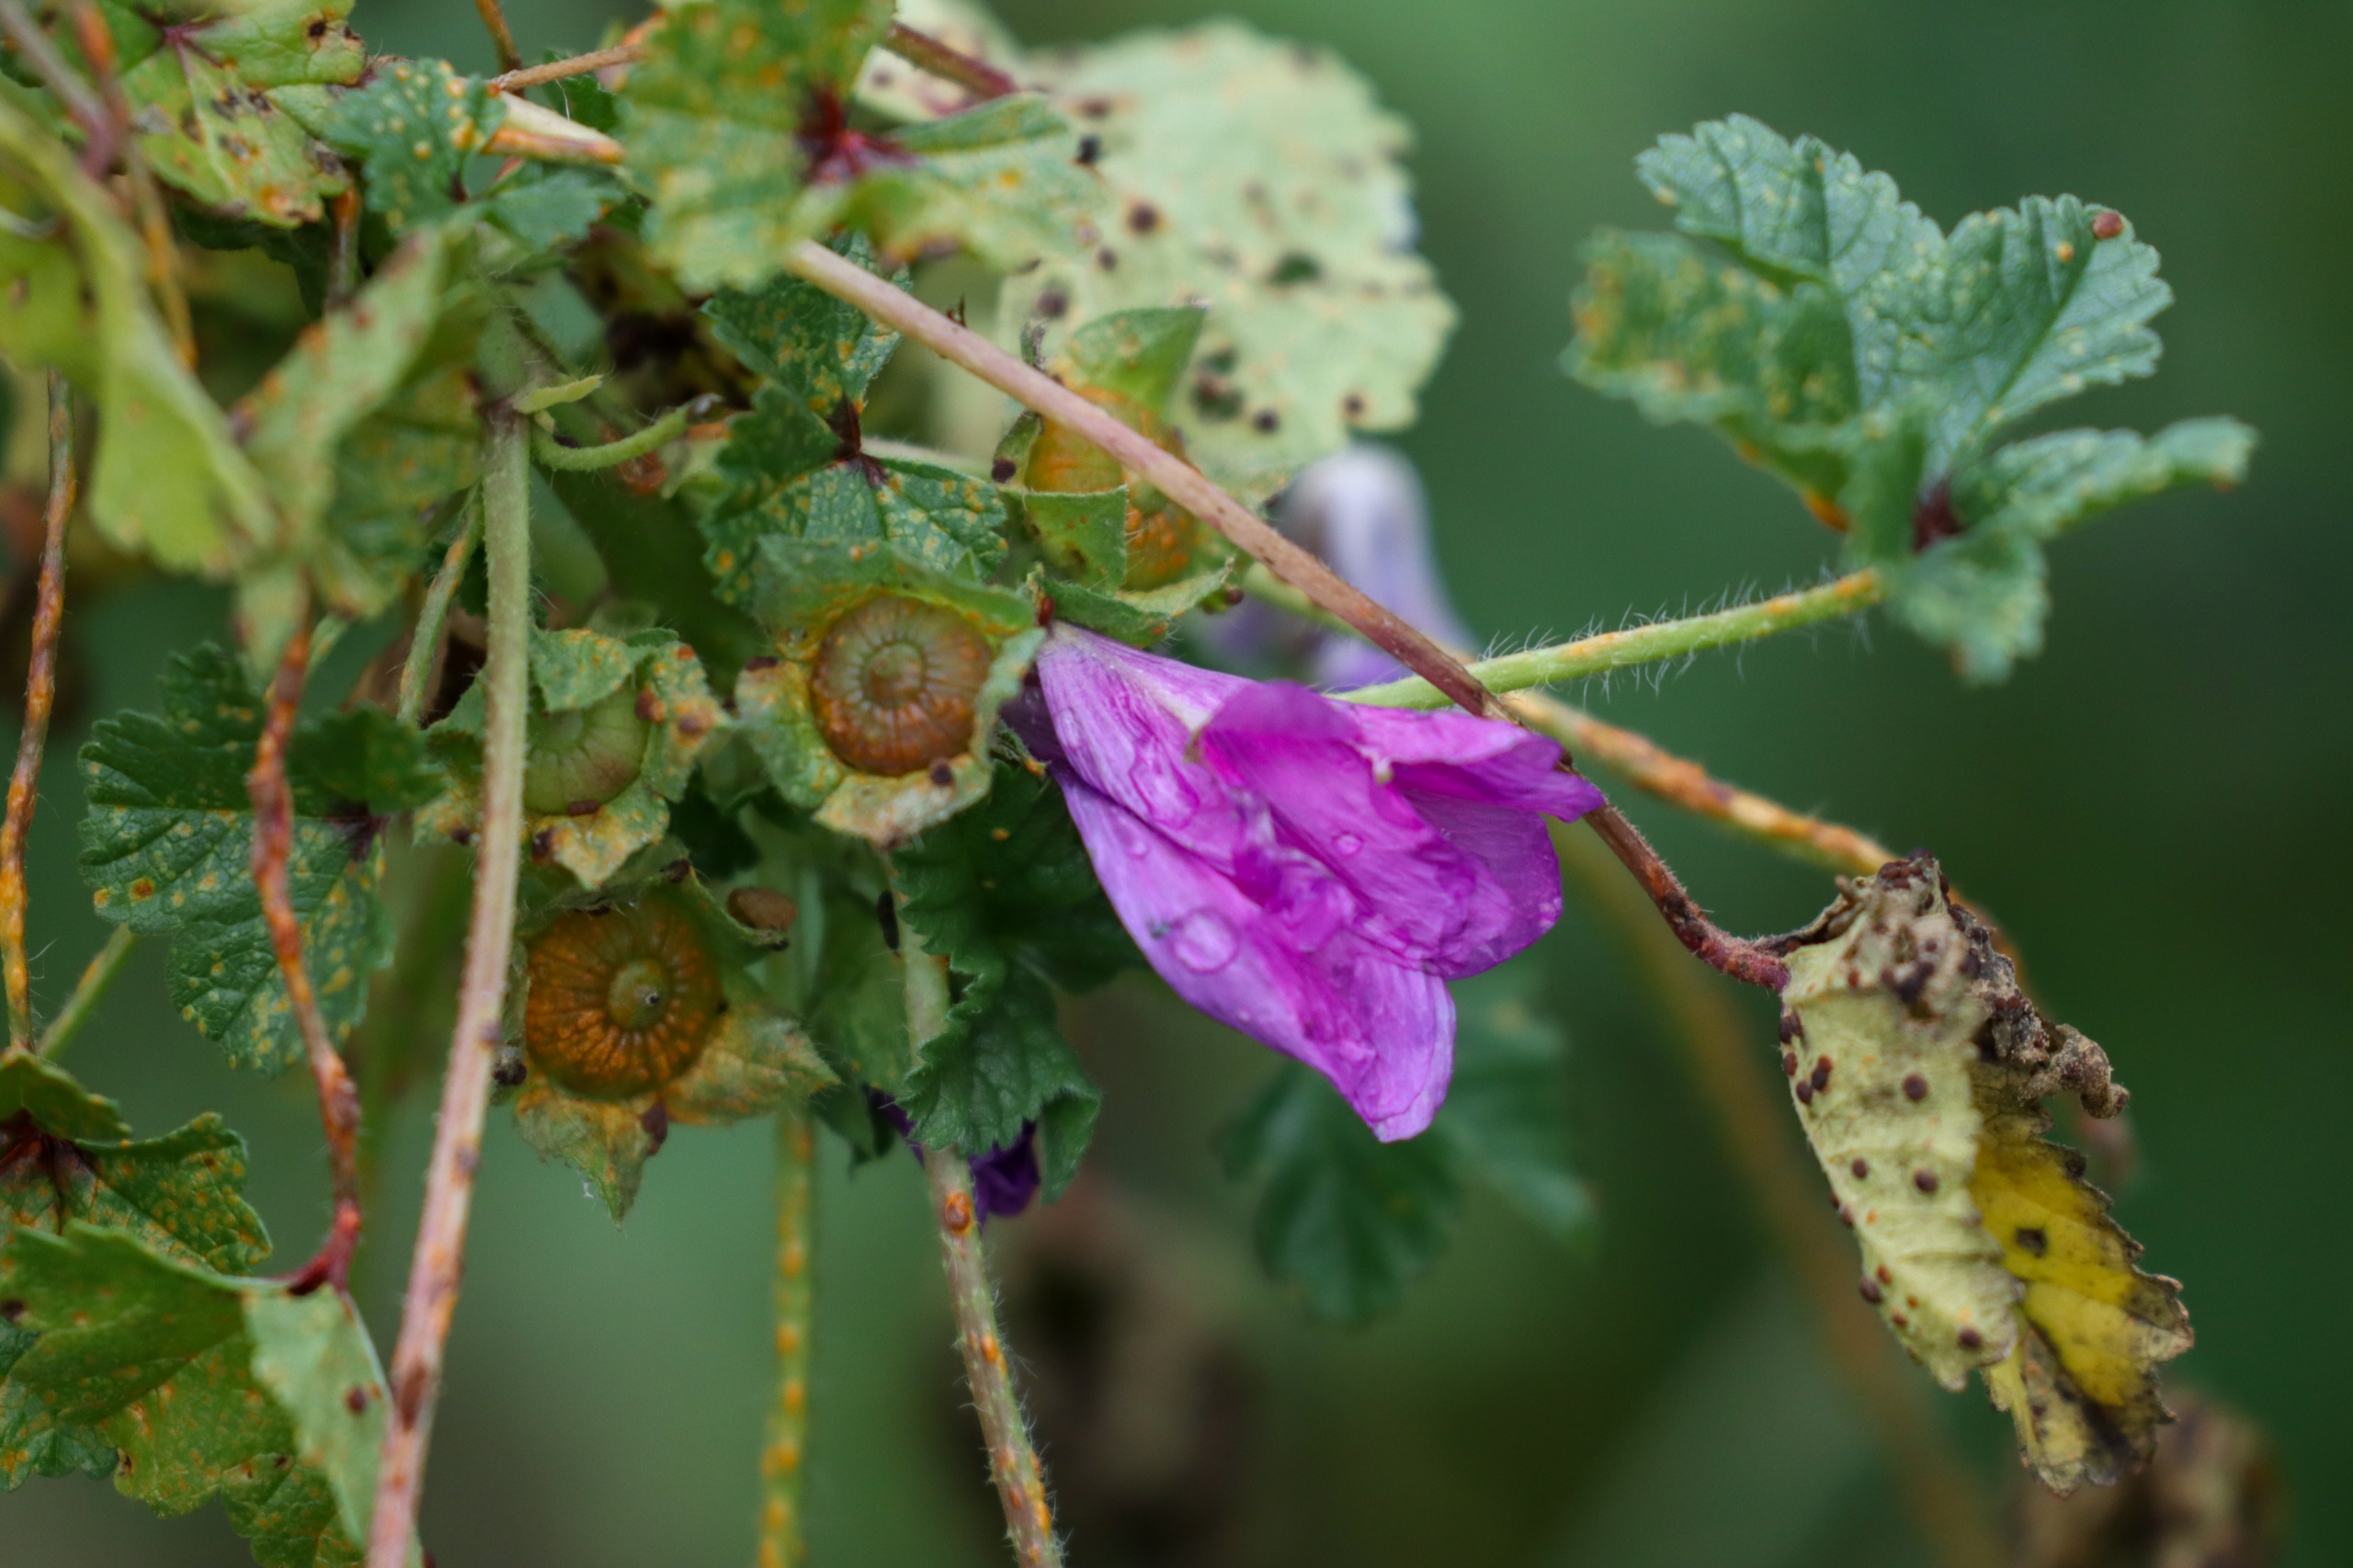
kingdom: Plantae
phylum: Tracheophyta
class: Magnoliopsida
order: Malvales
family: Malvaceae
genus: Malva
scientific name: Malva sylvestris
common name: Almindelig katost
